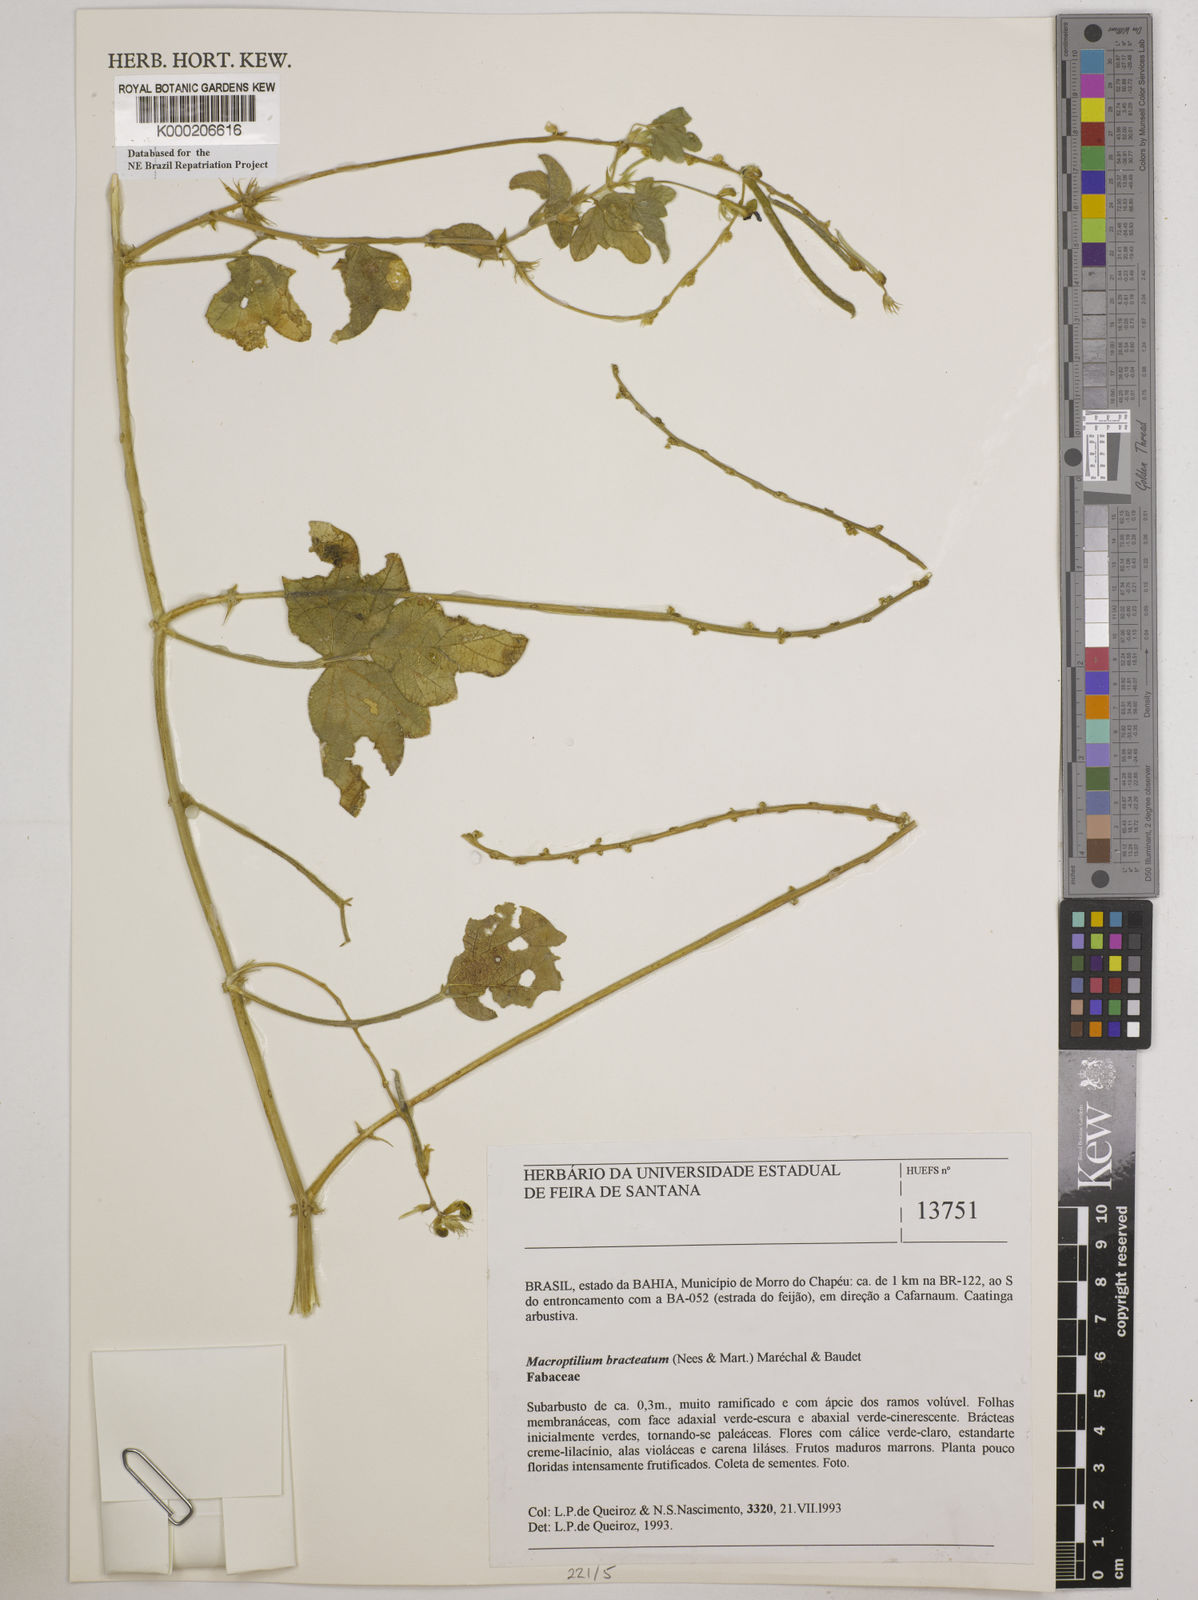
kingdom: Plantae
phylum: Tracheophyta
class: Magnoliopsida
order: Fabales
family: Fabaceae
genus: Macroptilium
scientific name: Macroptilium
